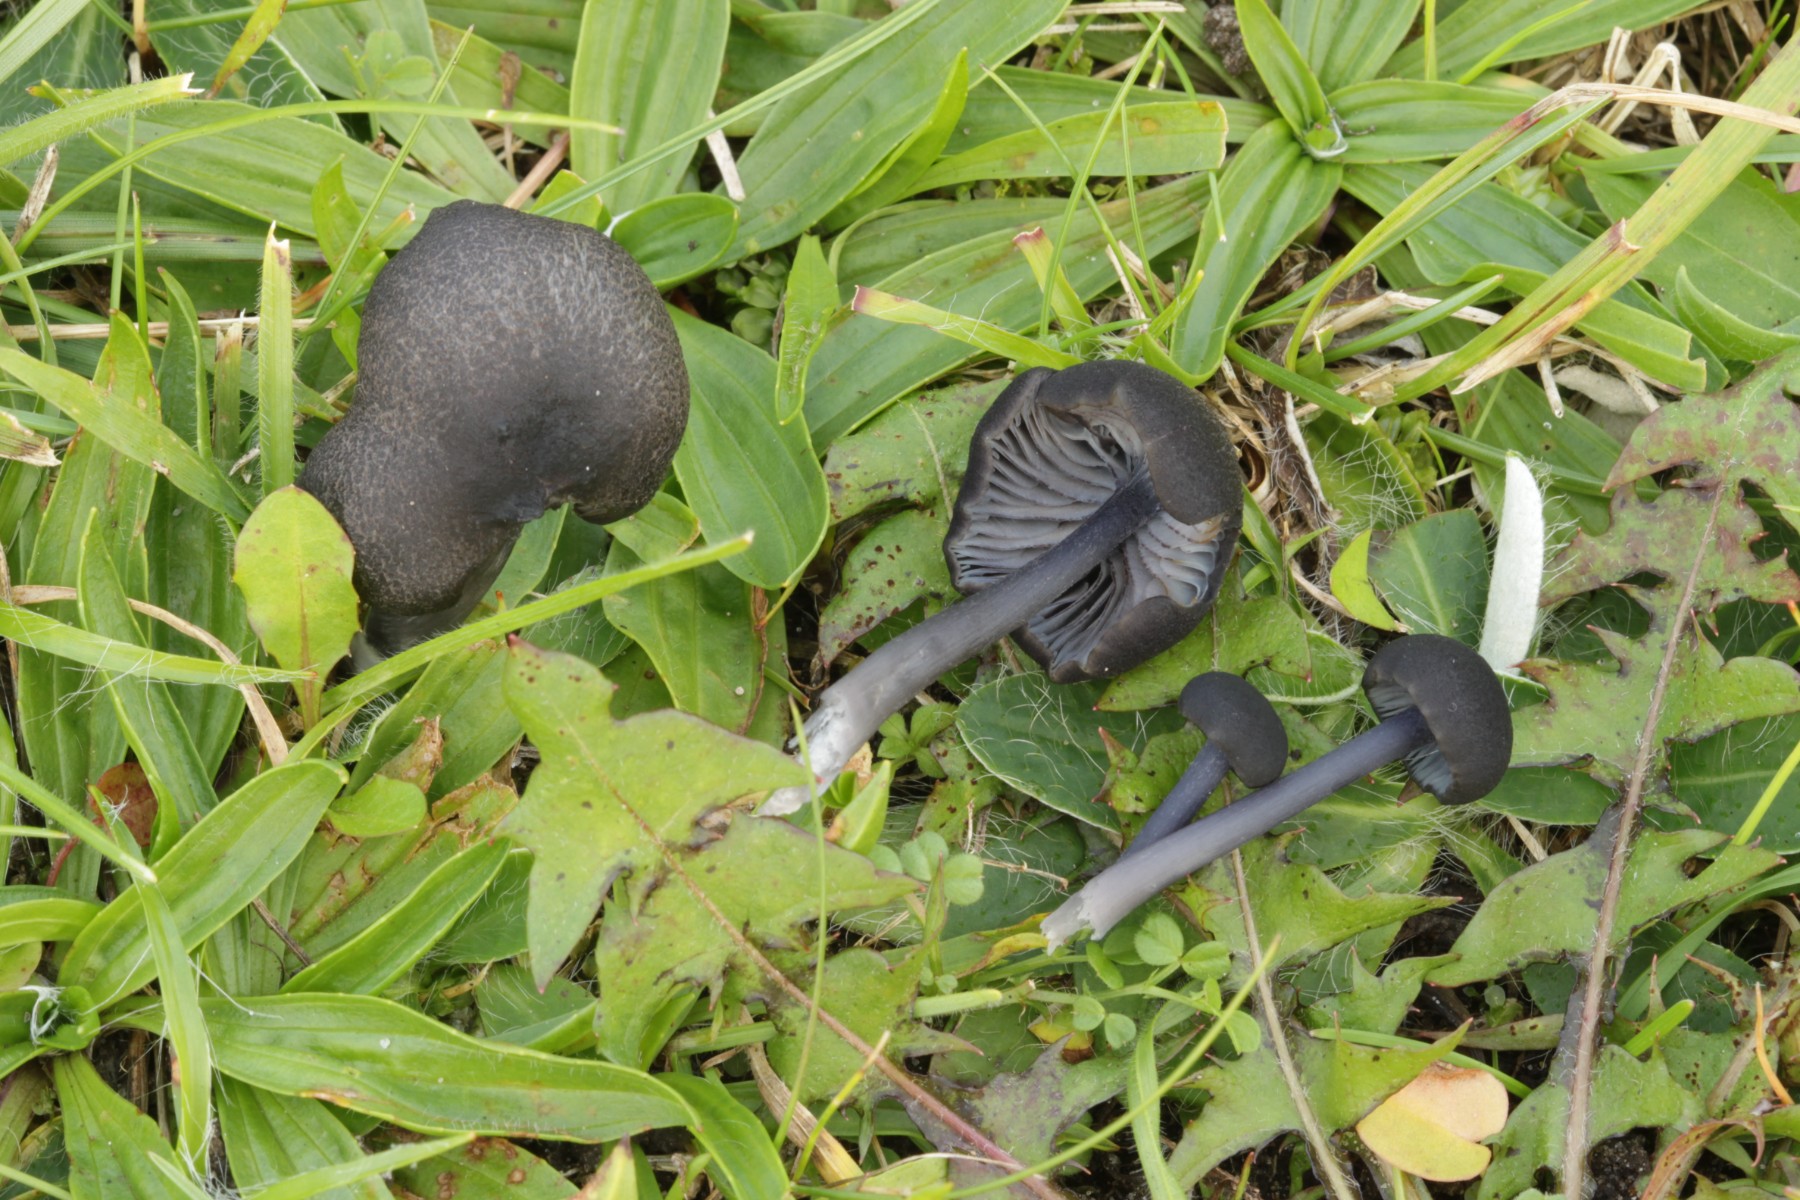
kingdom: Fungi
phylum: Basidiomycota
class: Agaricomycetes
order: Agaricales
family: Entolomataceae
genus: Entoloma
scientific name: Entoloma serrulatum
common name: savbladet rødblad
